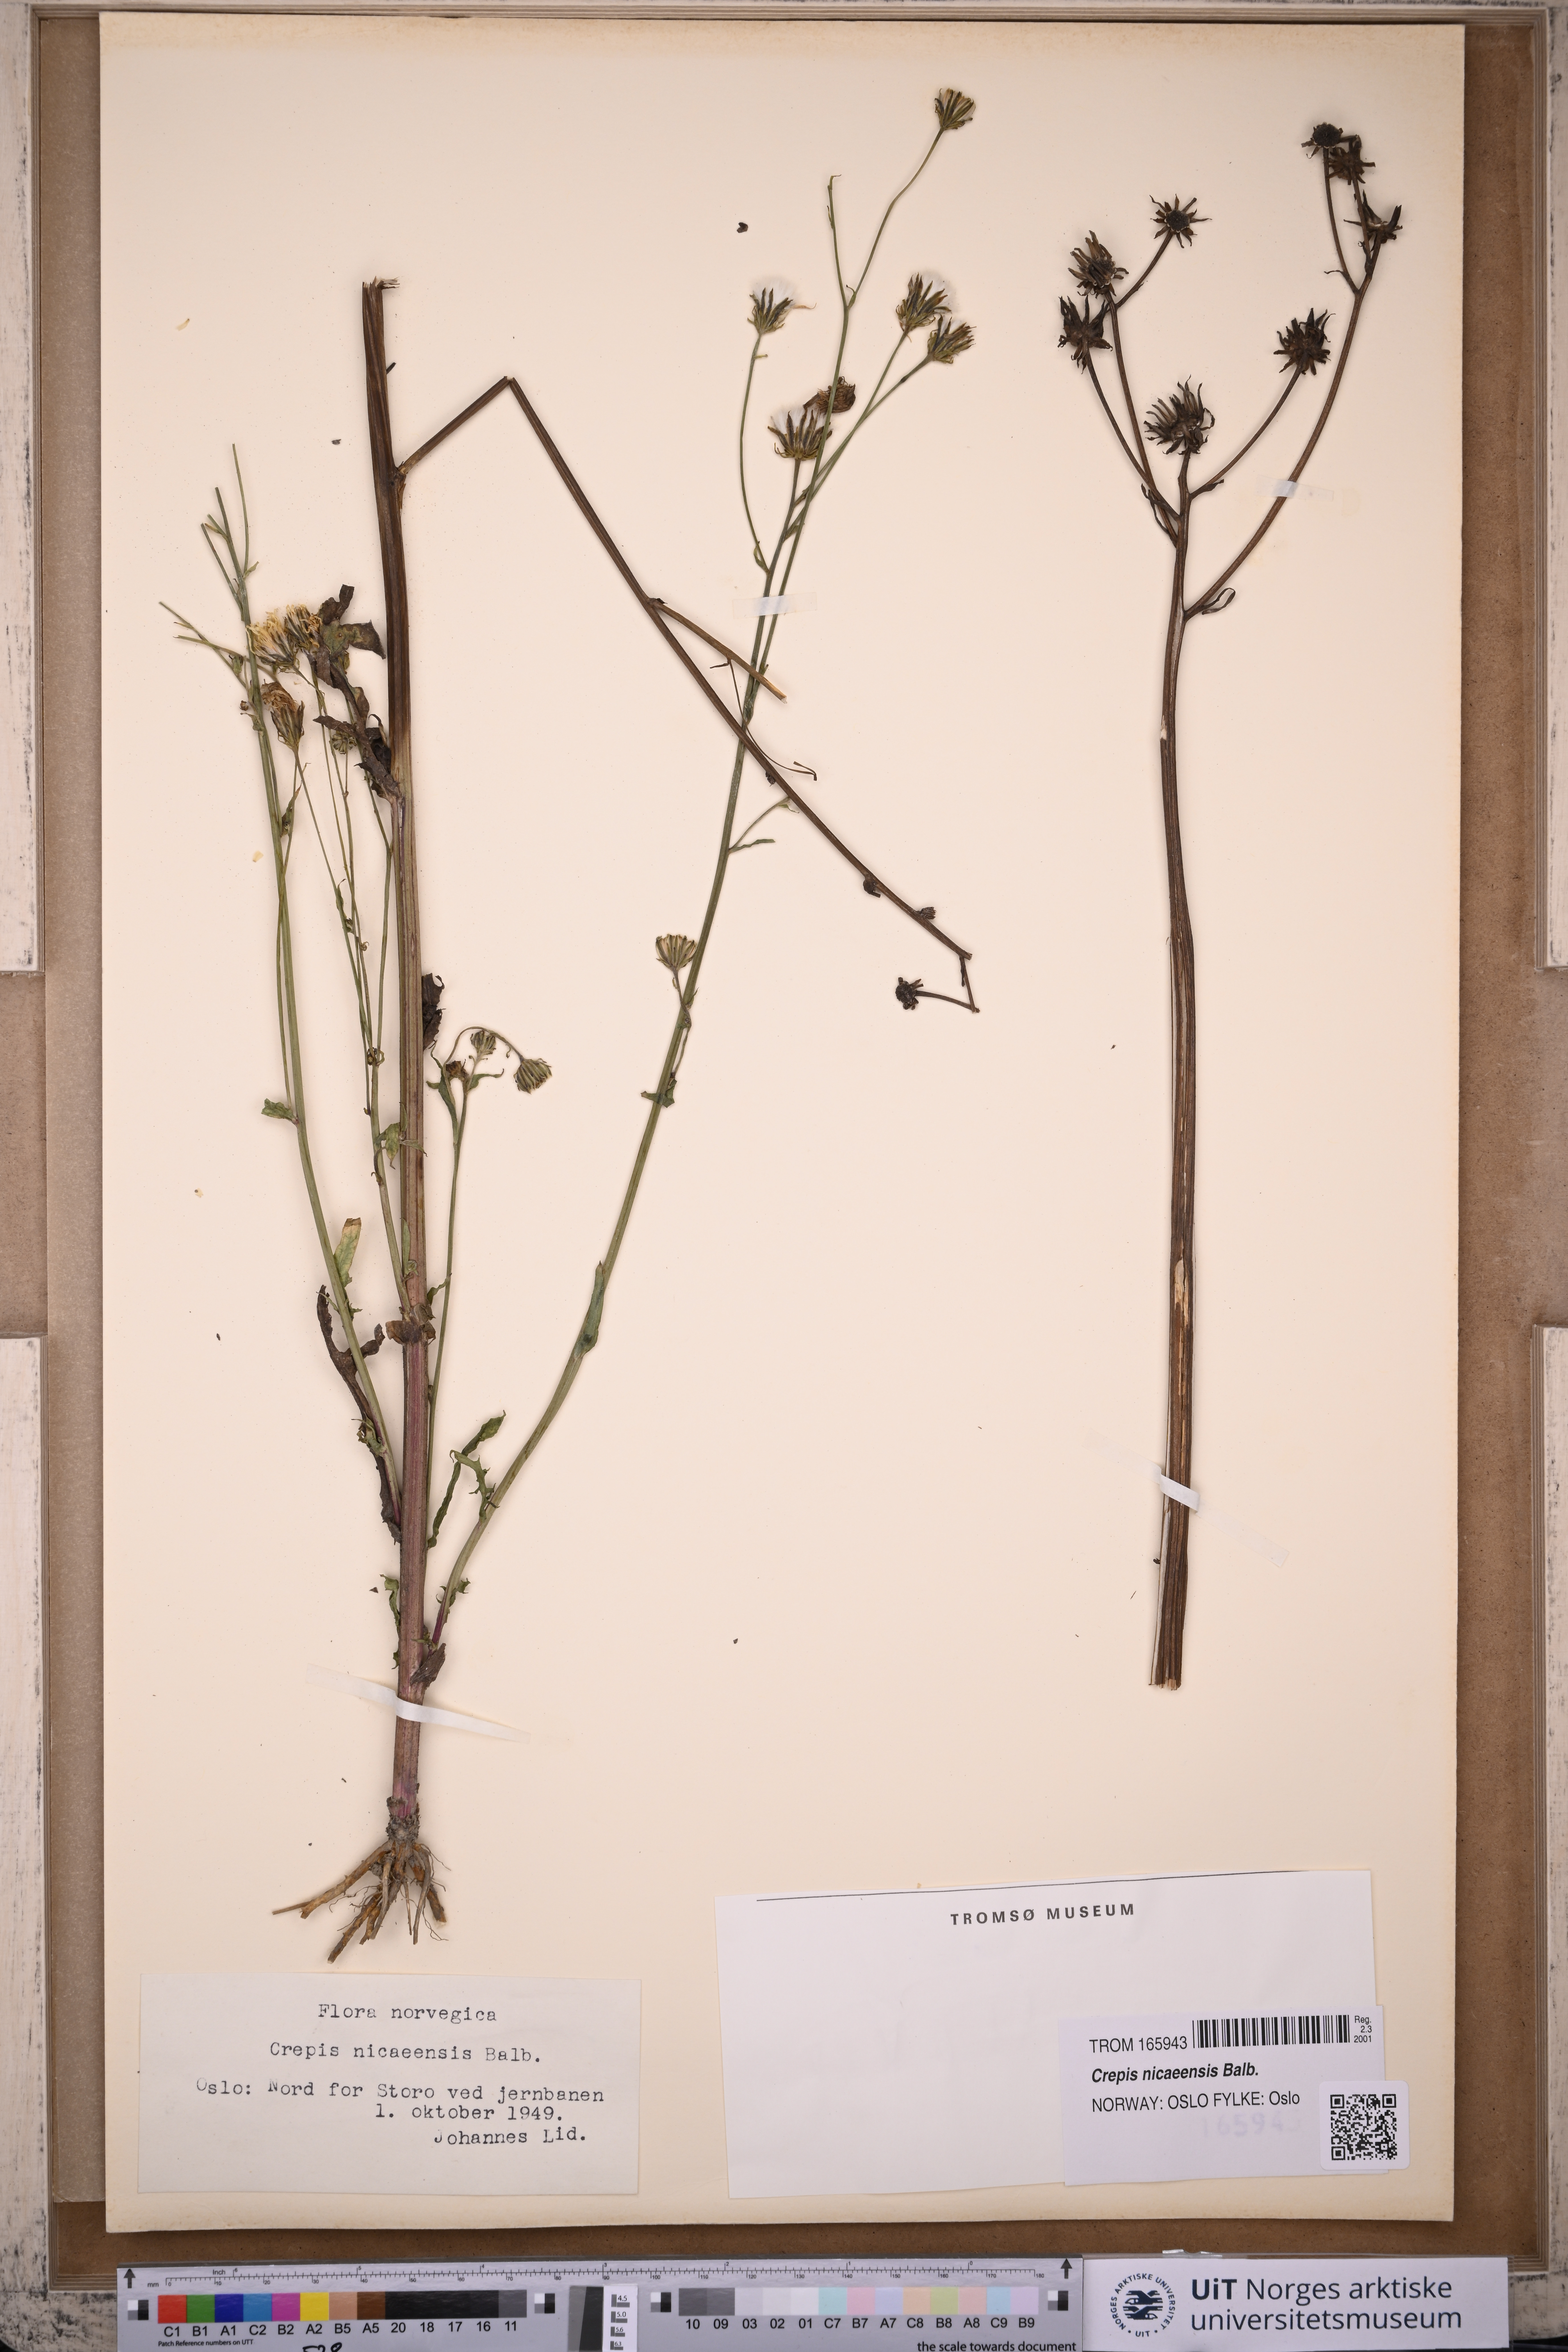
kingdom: Plantae
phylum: Tracheophyta
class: Magnoliopsida
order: Asterales
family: Asteraceae
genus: Crepis
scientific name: Crepis nicaeensis
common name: Turkish hawksbeard
